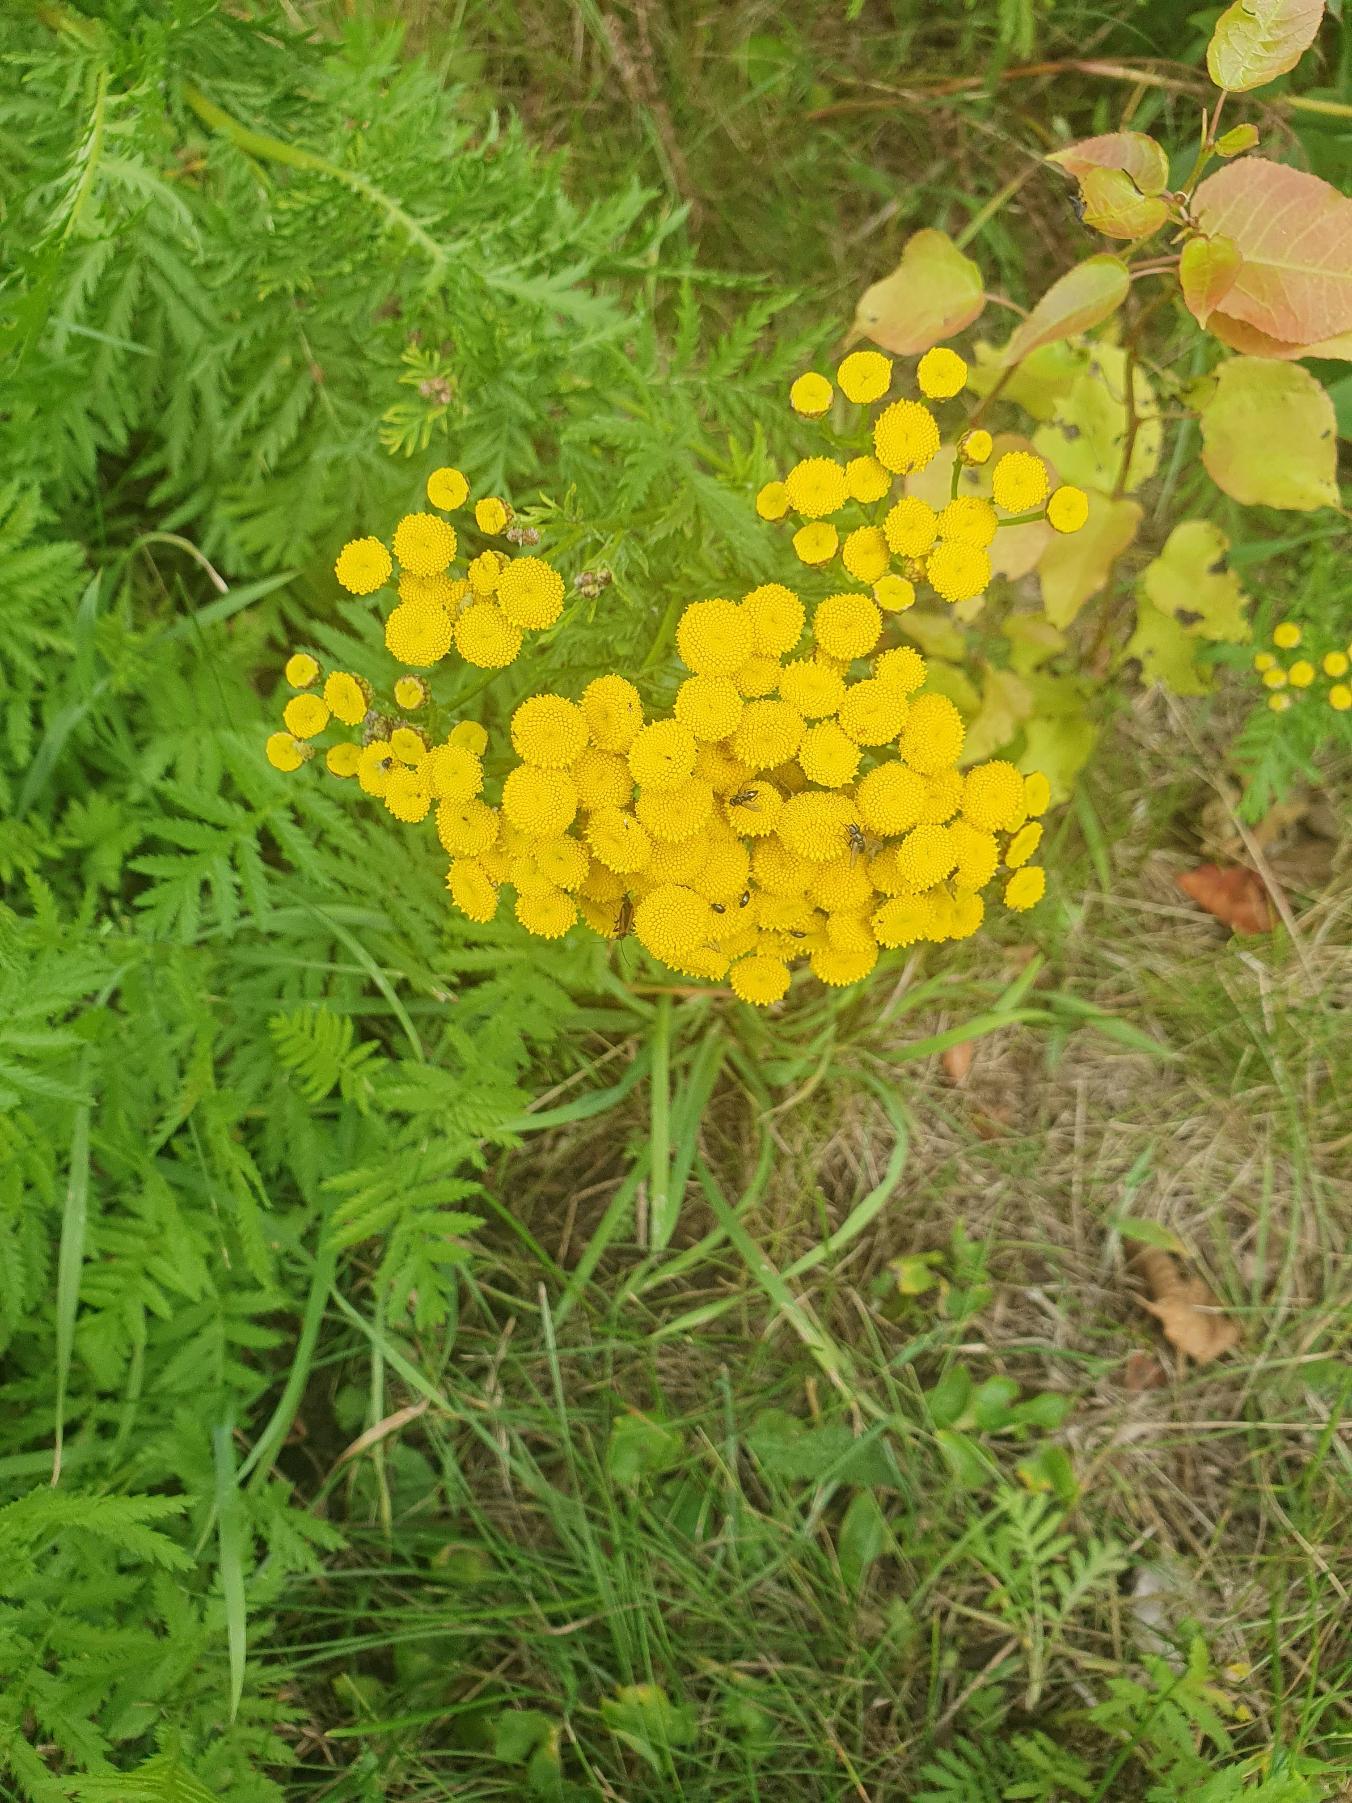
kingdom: Plantae
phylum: Tracheophyta
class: Magnoliopsida
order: Asterales
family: Asteraceae
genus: Tanacetum
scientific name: Tanacetum vulgare
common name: Rejnfan
